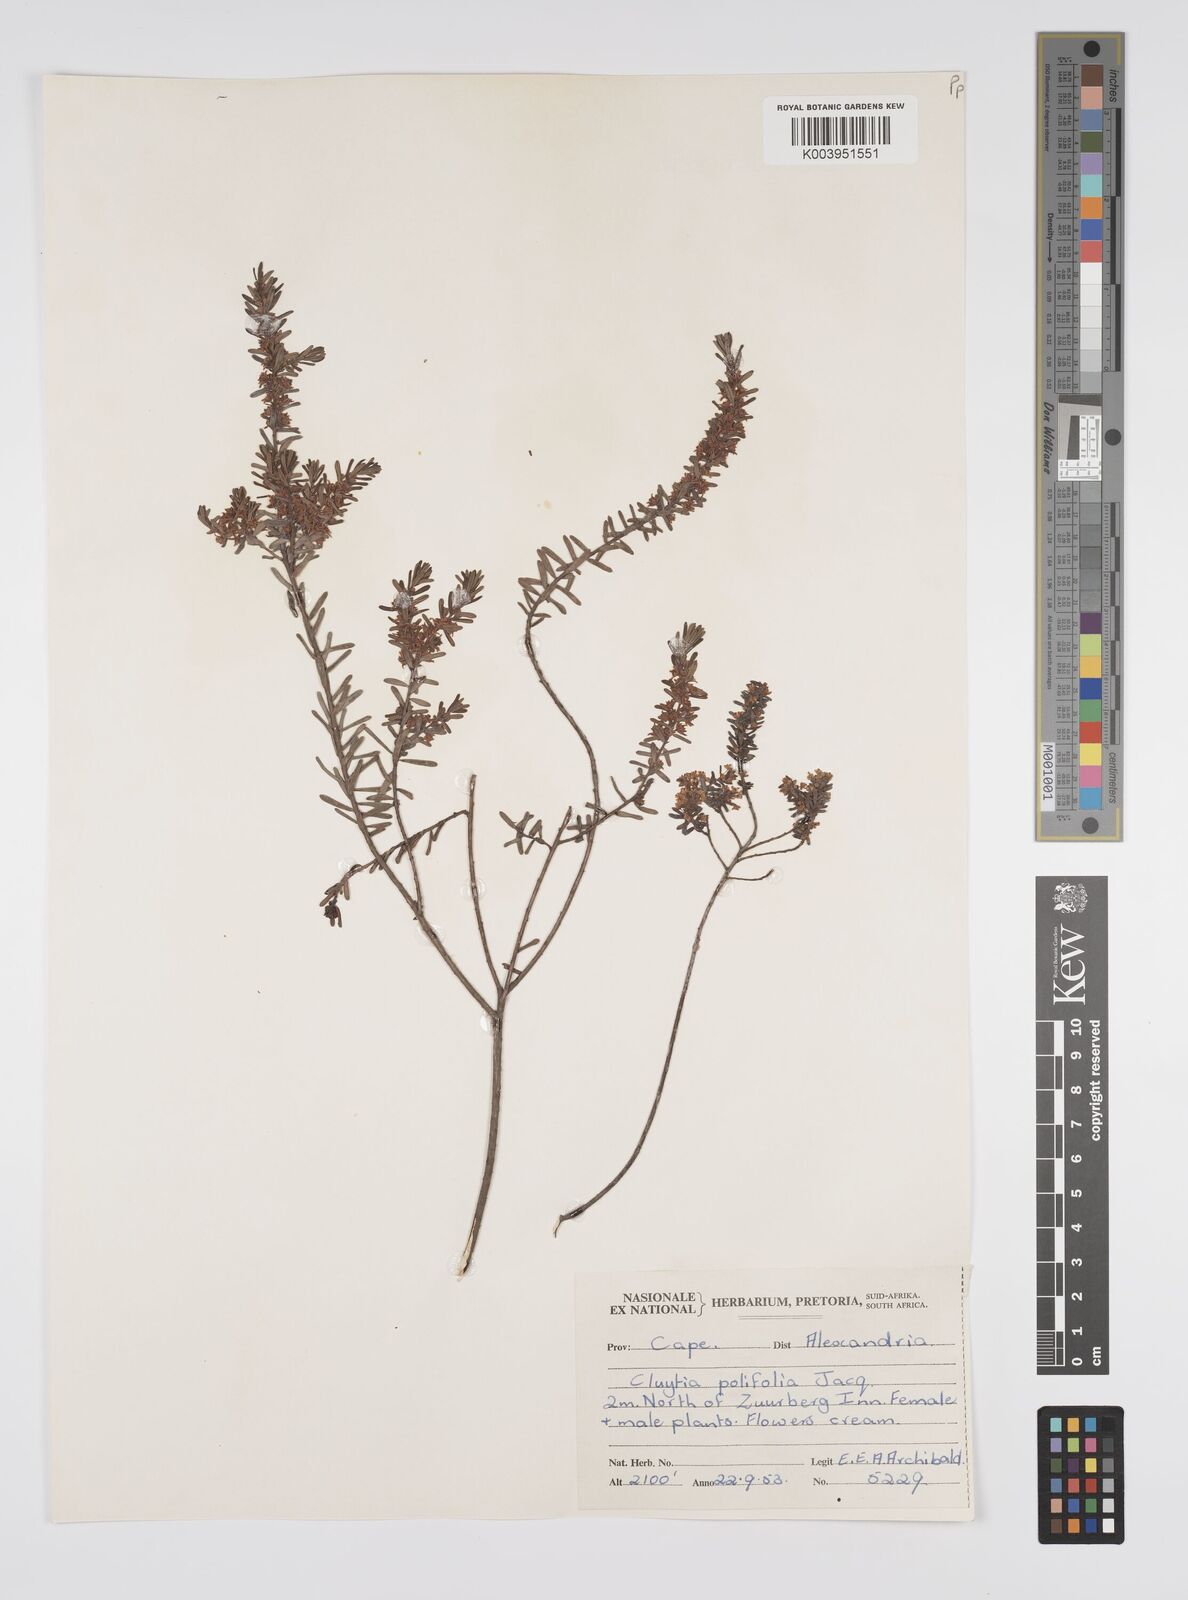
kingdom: Plantae
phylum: Tracheophyta
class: Magnoliopsida
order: Malpighiales
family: Peraceae
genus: Clutia
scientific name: Clutia
